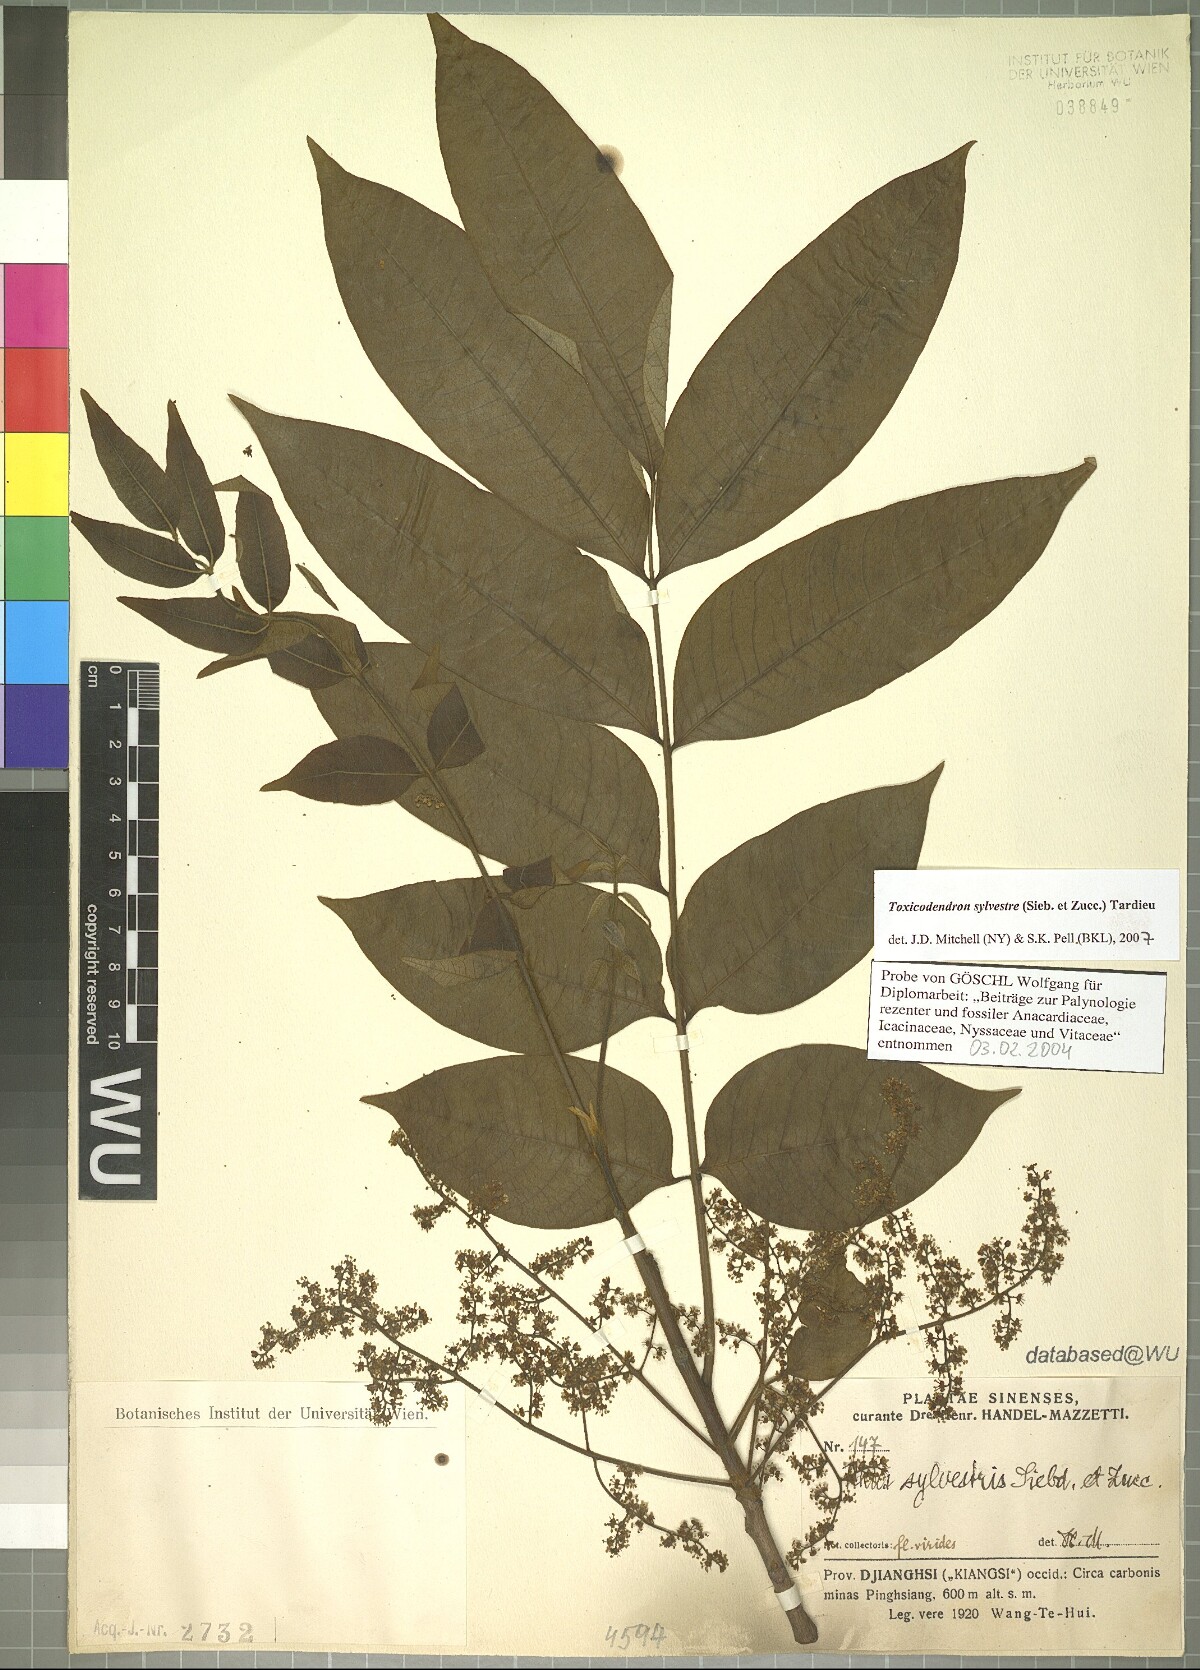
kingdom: Plantae
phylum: Tracheophyta
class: Magnoliopsida
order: Sapindales
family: Anacardiaceae
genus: Toxicodendron
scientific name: Toxicodendron sylvestre
